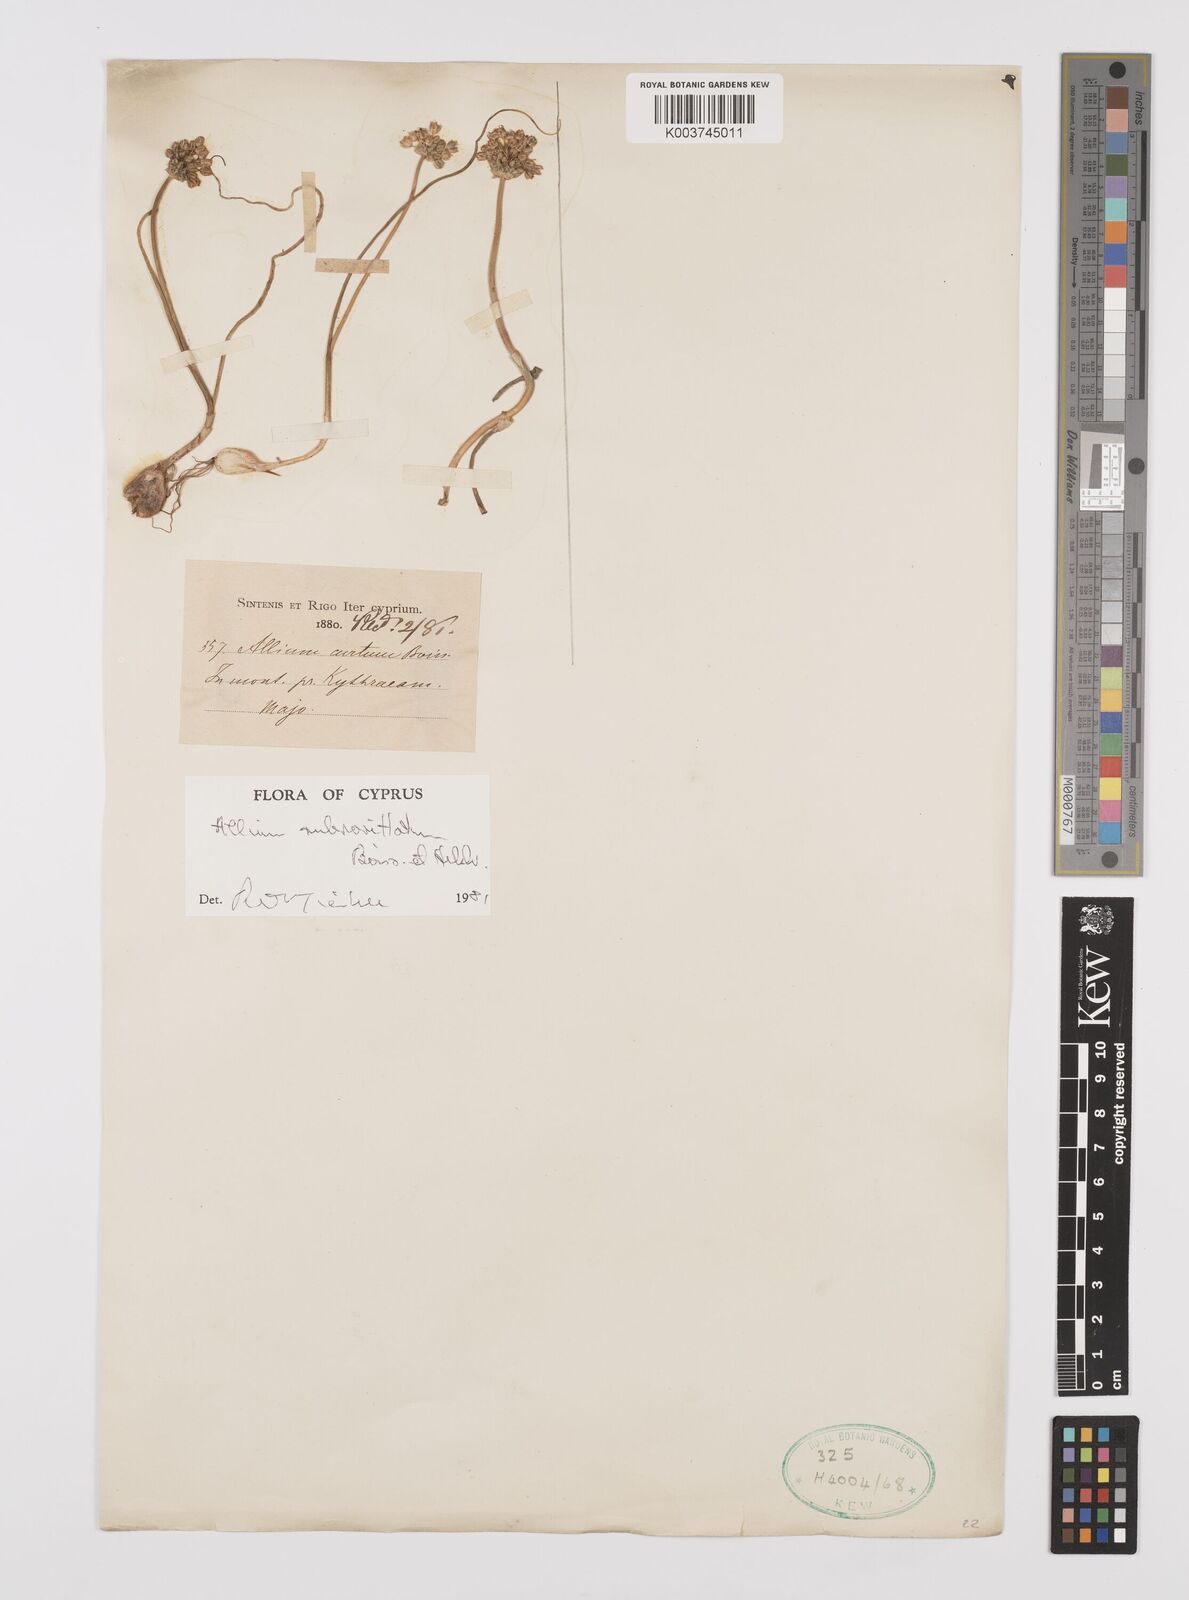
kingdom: Plantae
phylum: Tracheophyta
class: Liliopsida
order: Asparagales
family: Amaryllidaceae
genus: Allium
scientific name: Allium rubrovittatum
